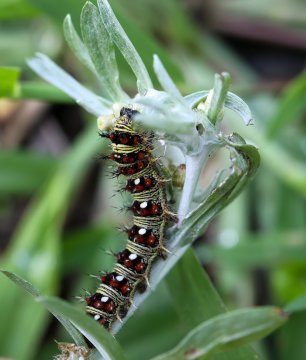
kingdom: Animalia
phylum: Arthropoda
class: Insecta
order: Lepidoptera
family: Nymphalidae
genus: Vanessa
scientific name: Vanessa virginiensis
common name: American Lady
